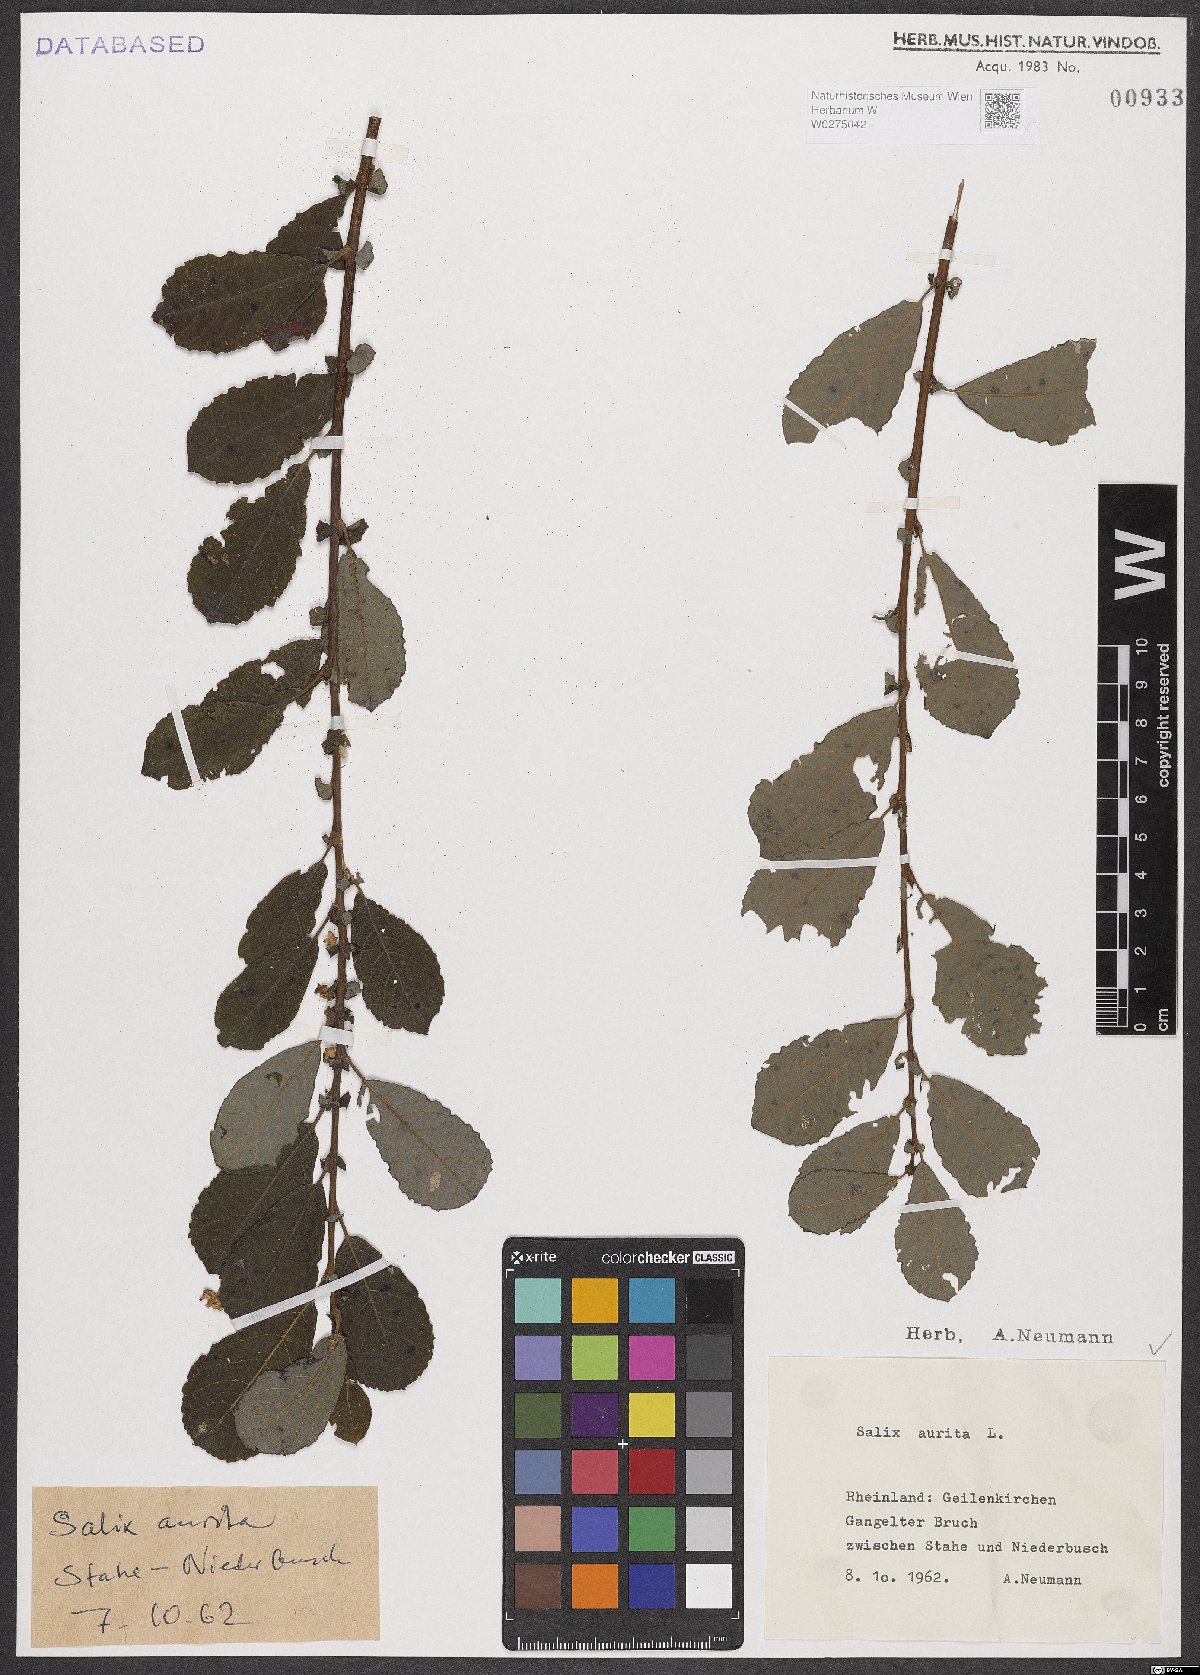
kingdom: Plantae
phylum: Tracheophyta
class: Magnoliopsida
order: Malpighiales
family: Salicaceae
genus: Salix
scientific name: Salix aurita
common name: Eared willow
